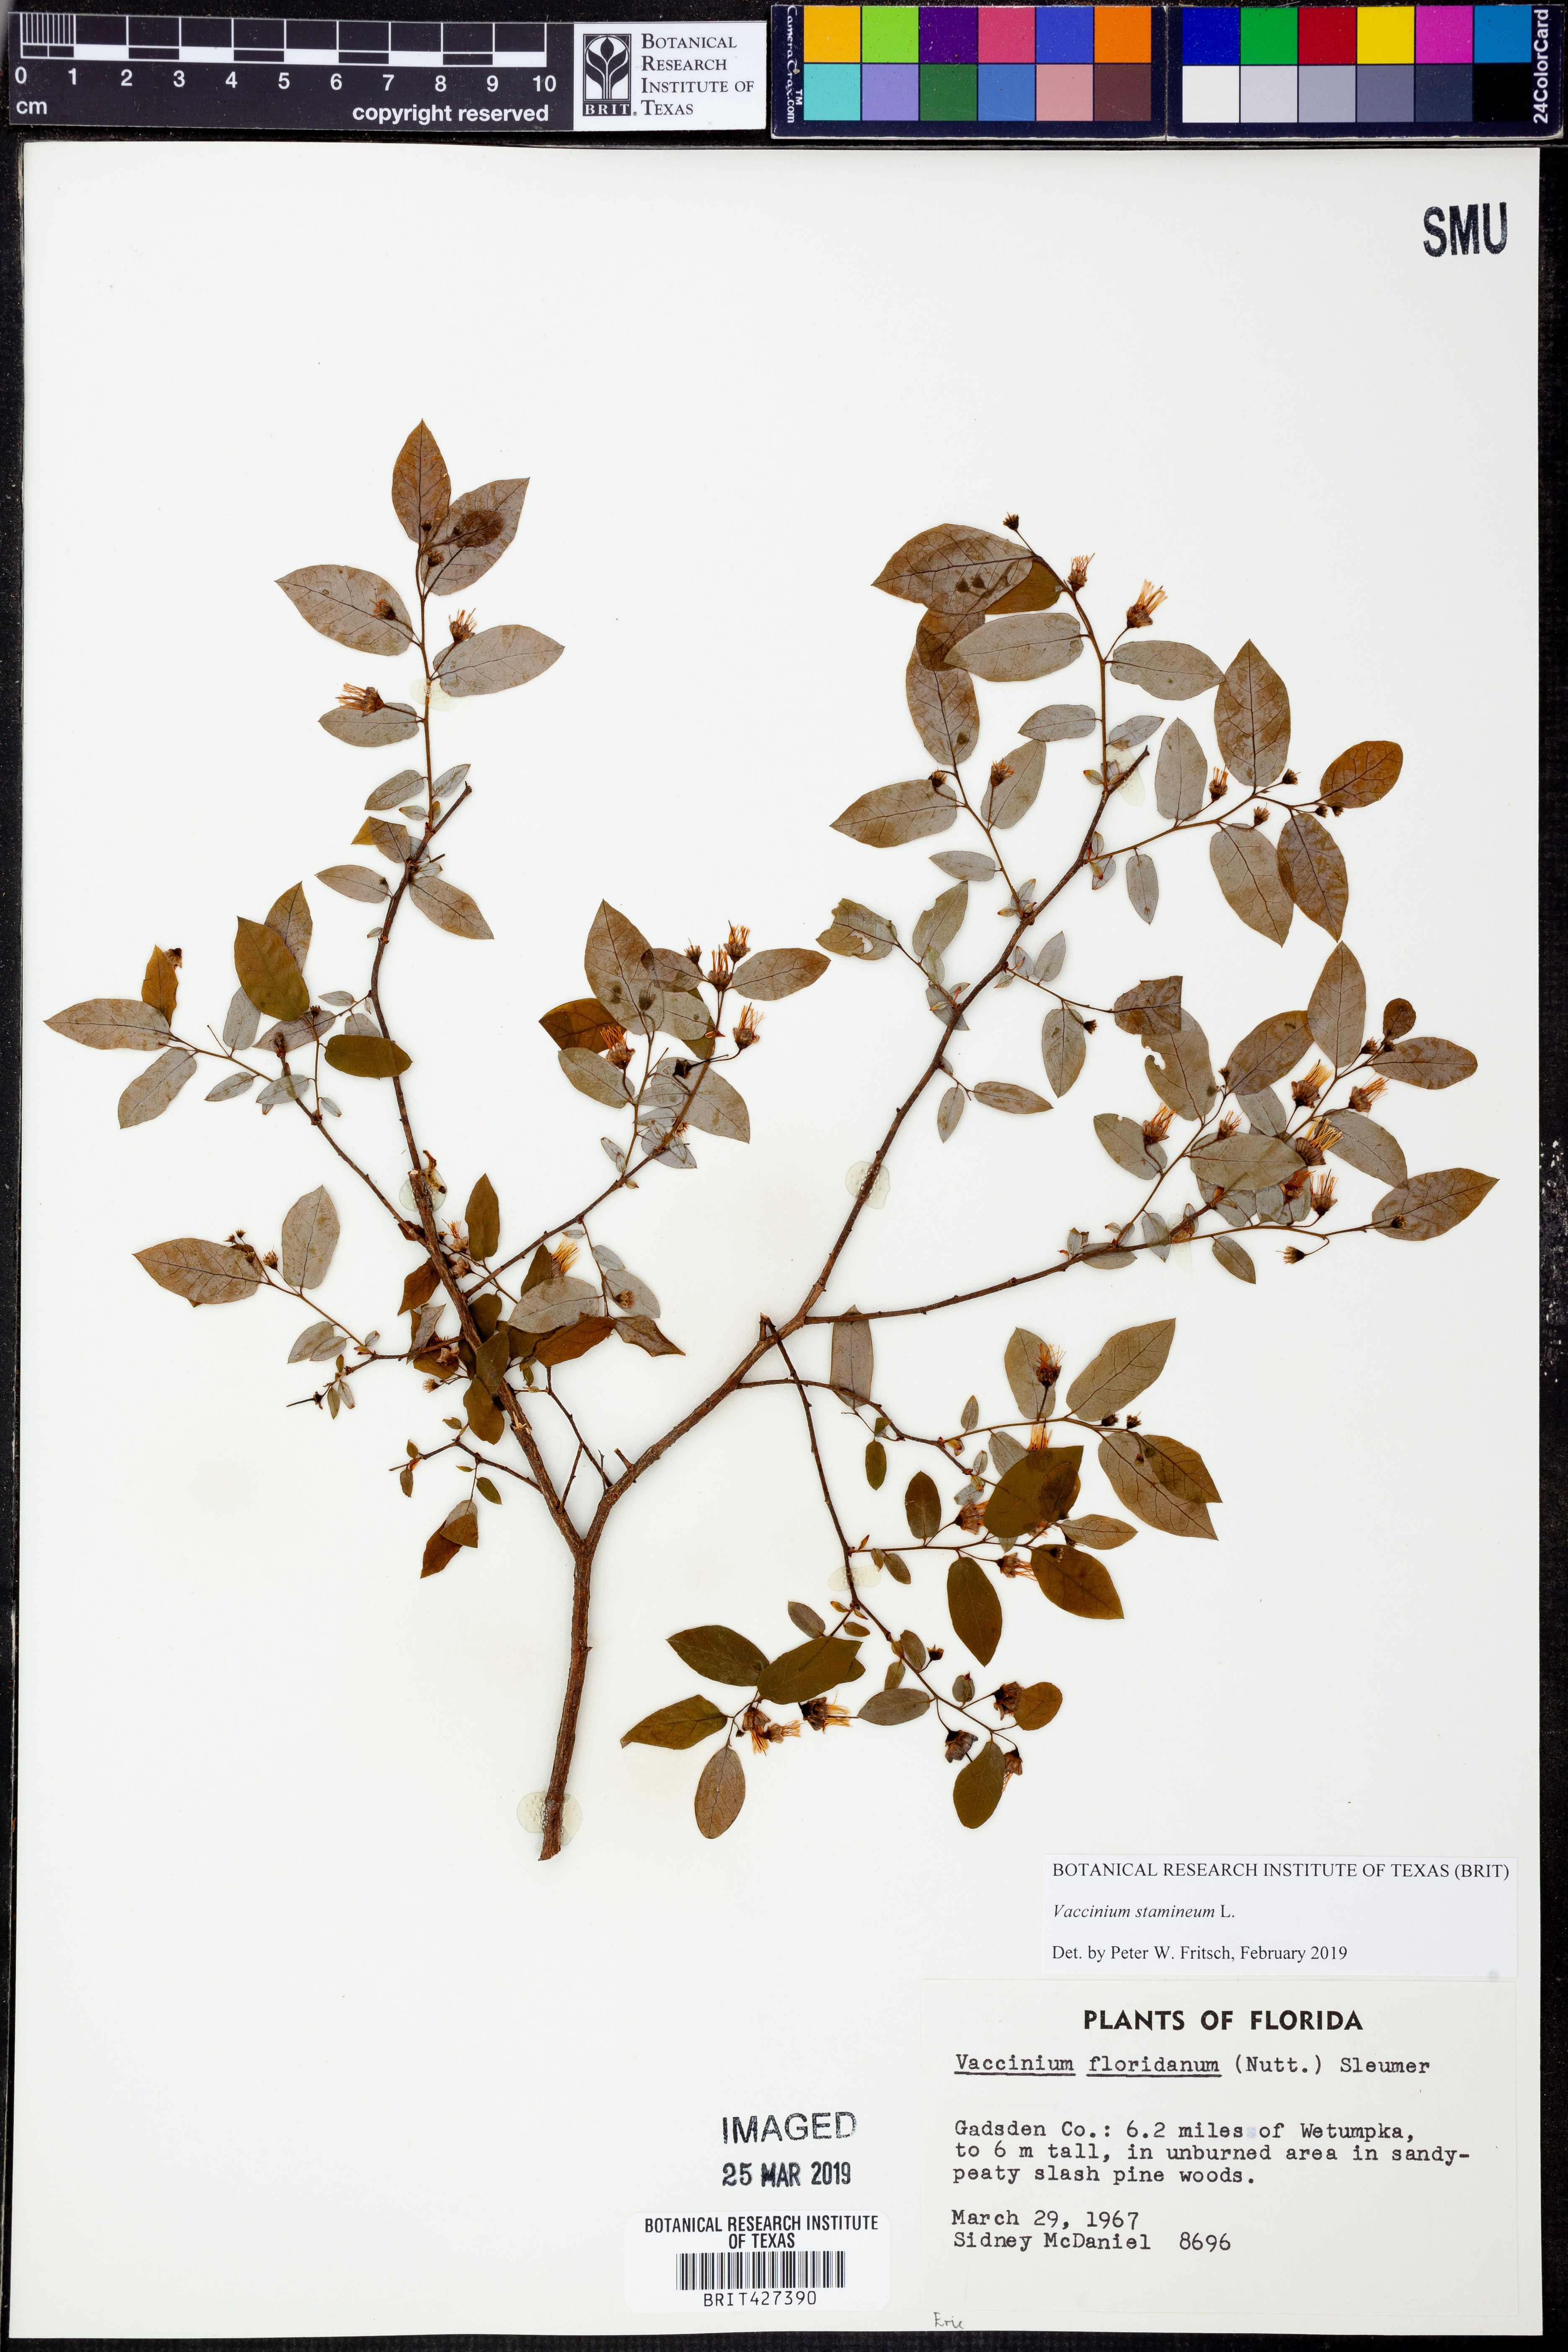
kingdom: Plantae
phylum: Tracheophyta
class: Magnoliopsida
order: Ericales
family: Ericaceae
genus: Vaccinium
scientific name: Vaccinium stamineum
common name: Deerberry
